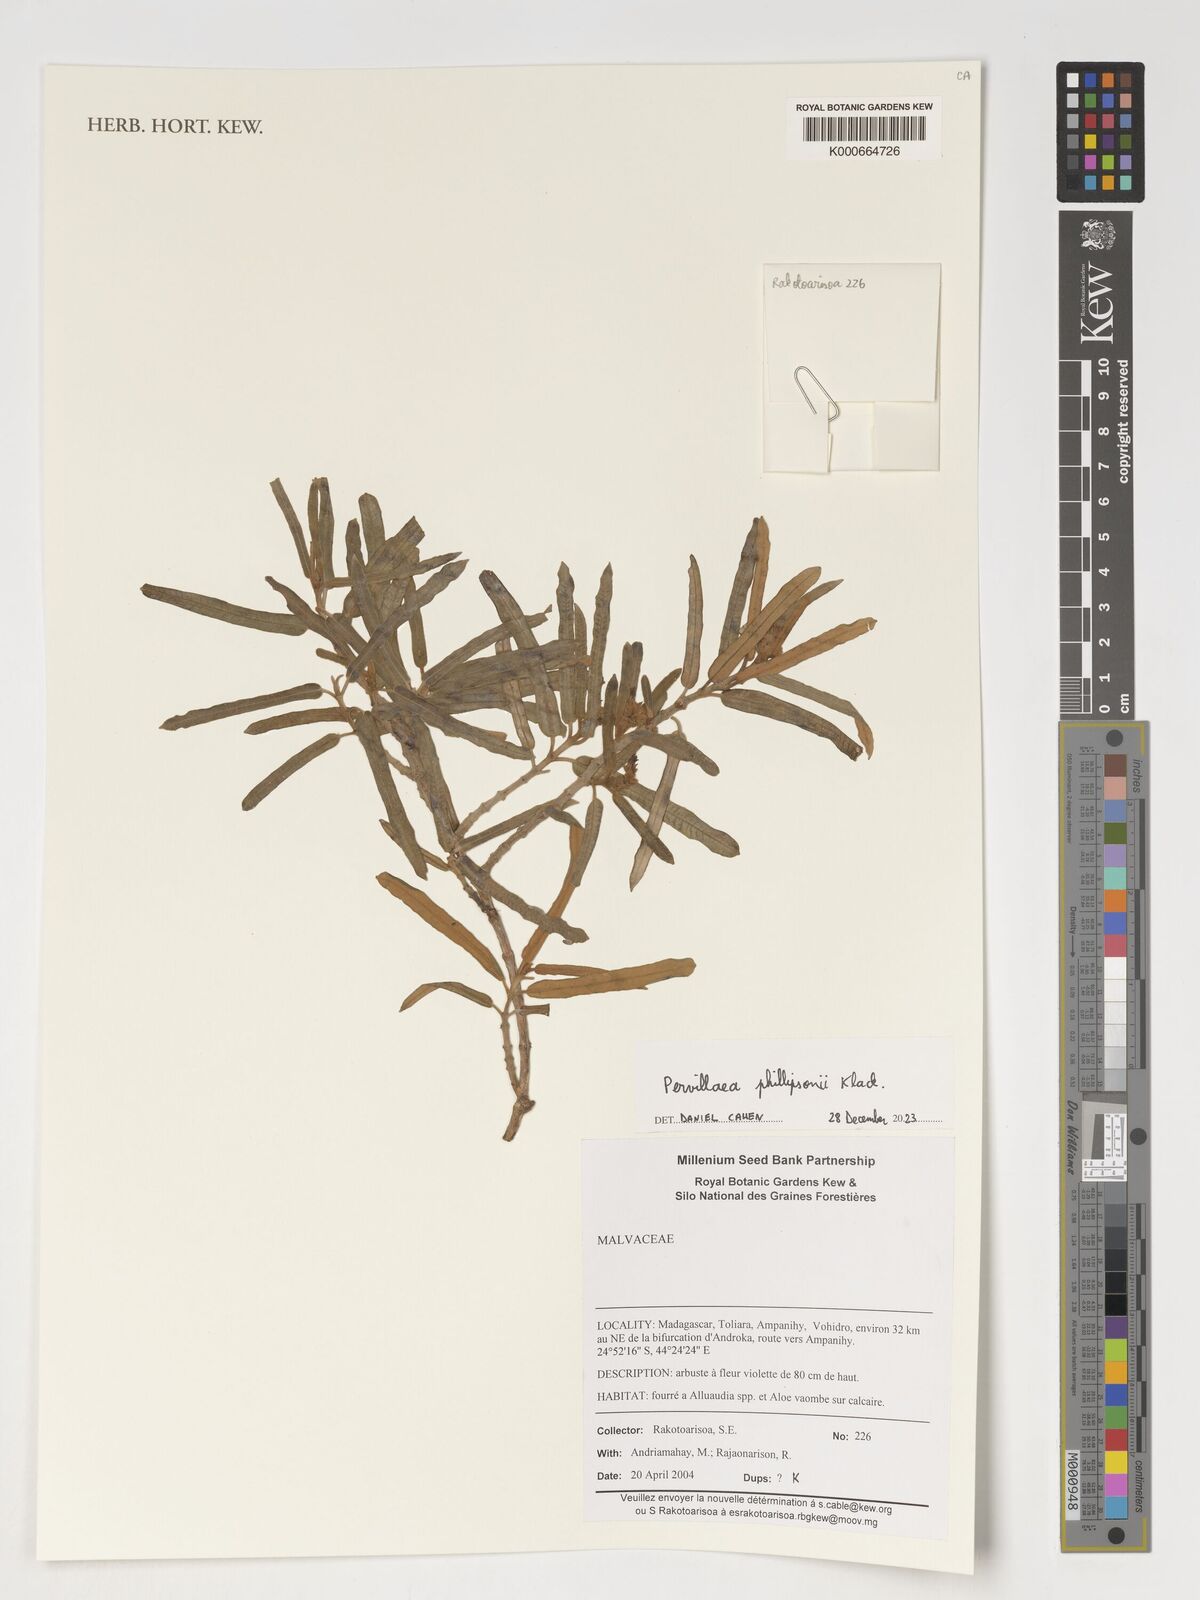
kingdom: Plantae
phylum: Tracheophyta
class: Magnoliopsida
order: Gentianales
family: Apocynaceae
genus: Pervillaea
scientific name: Pervillaea phillipsonii
